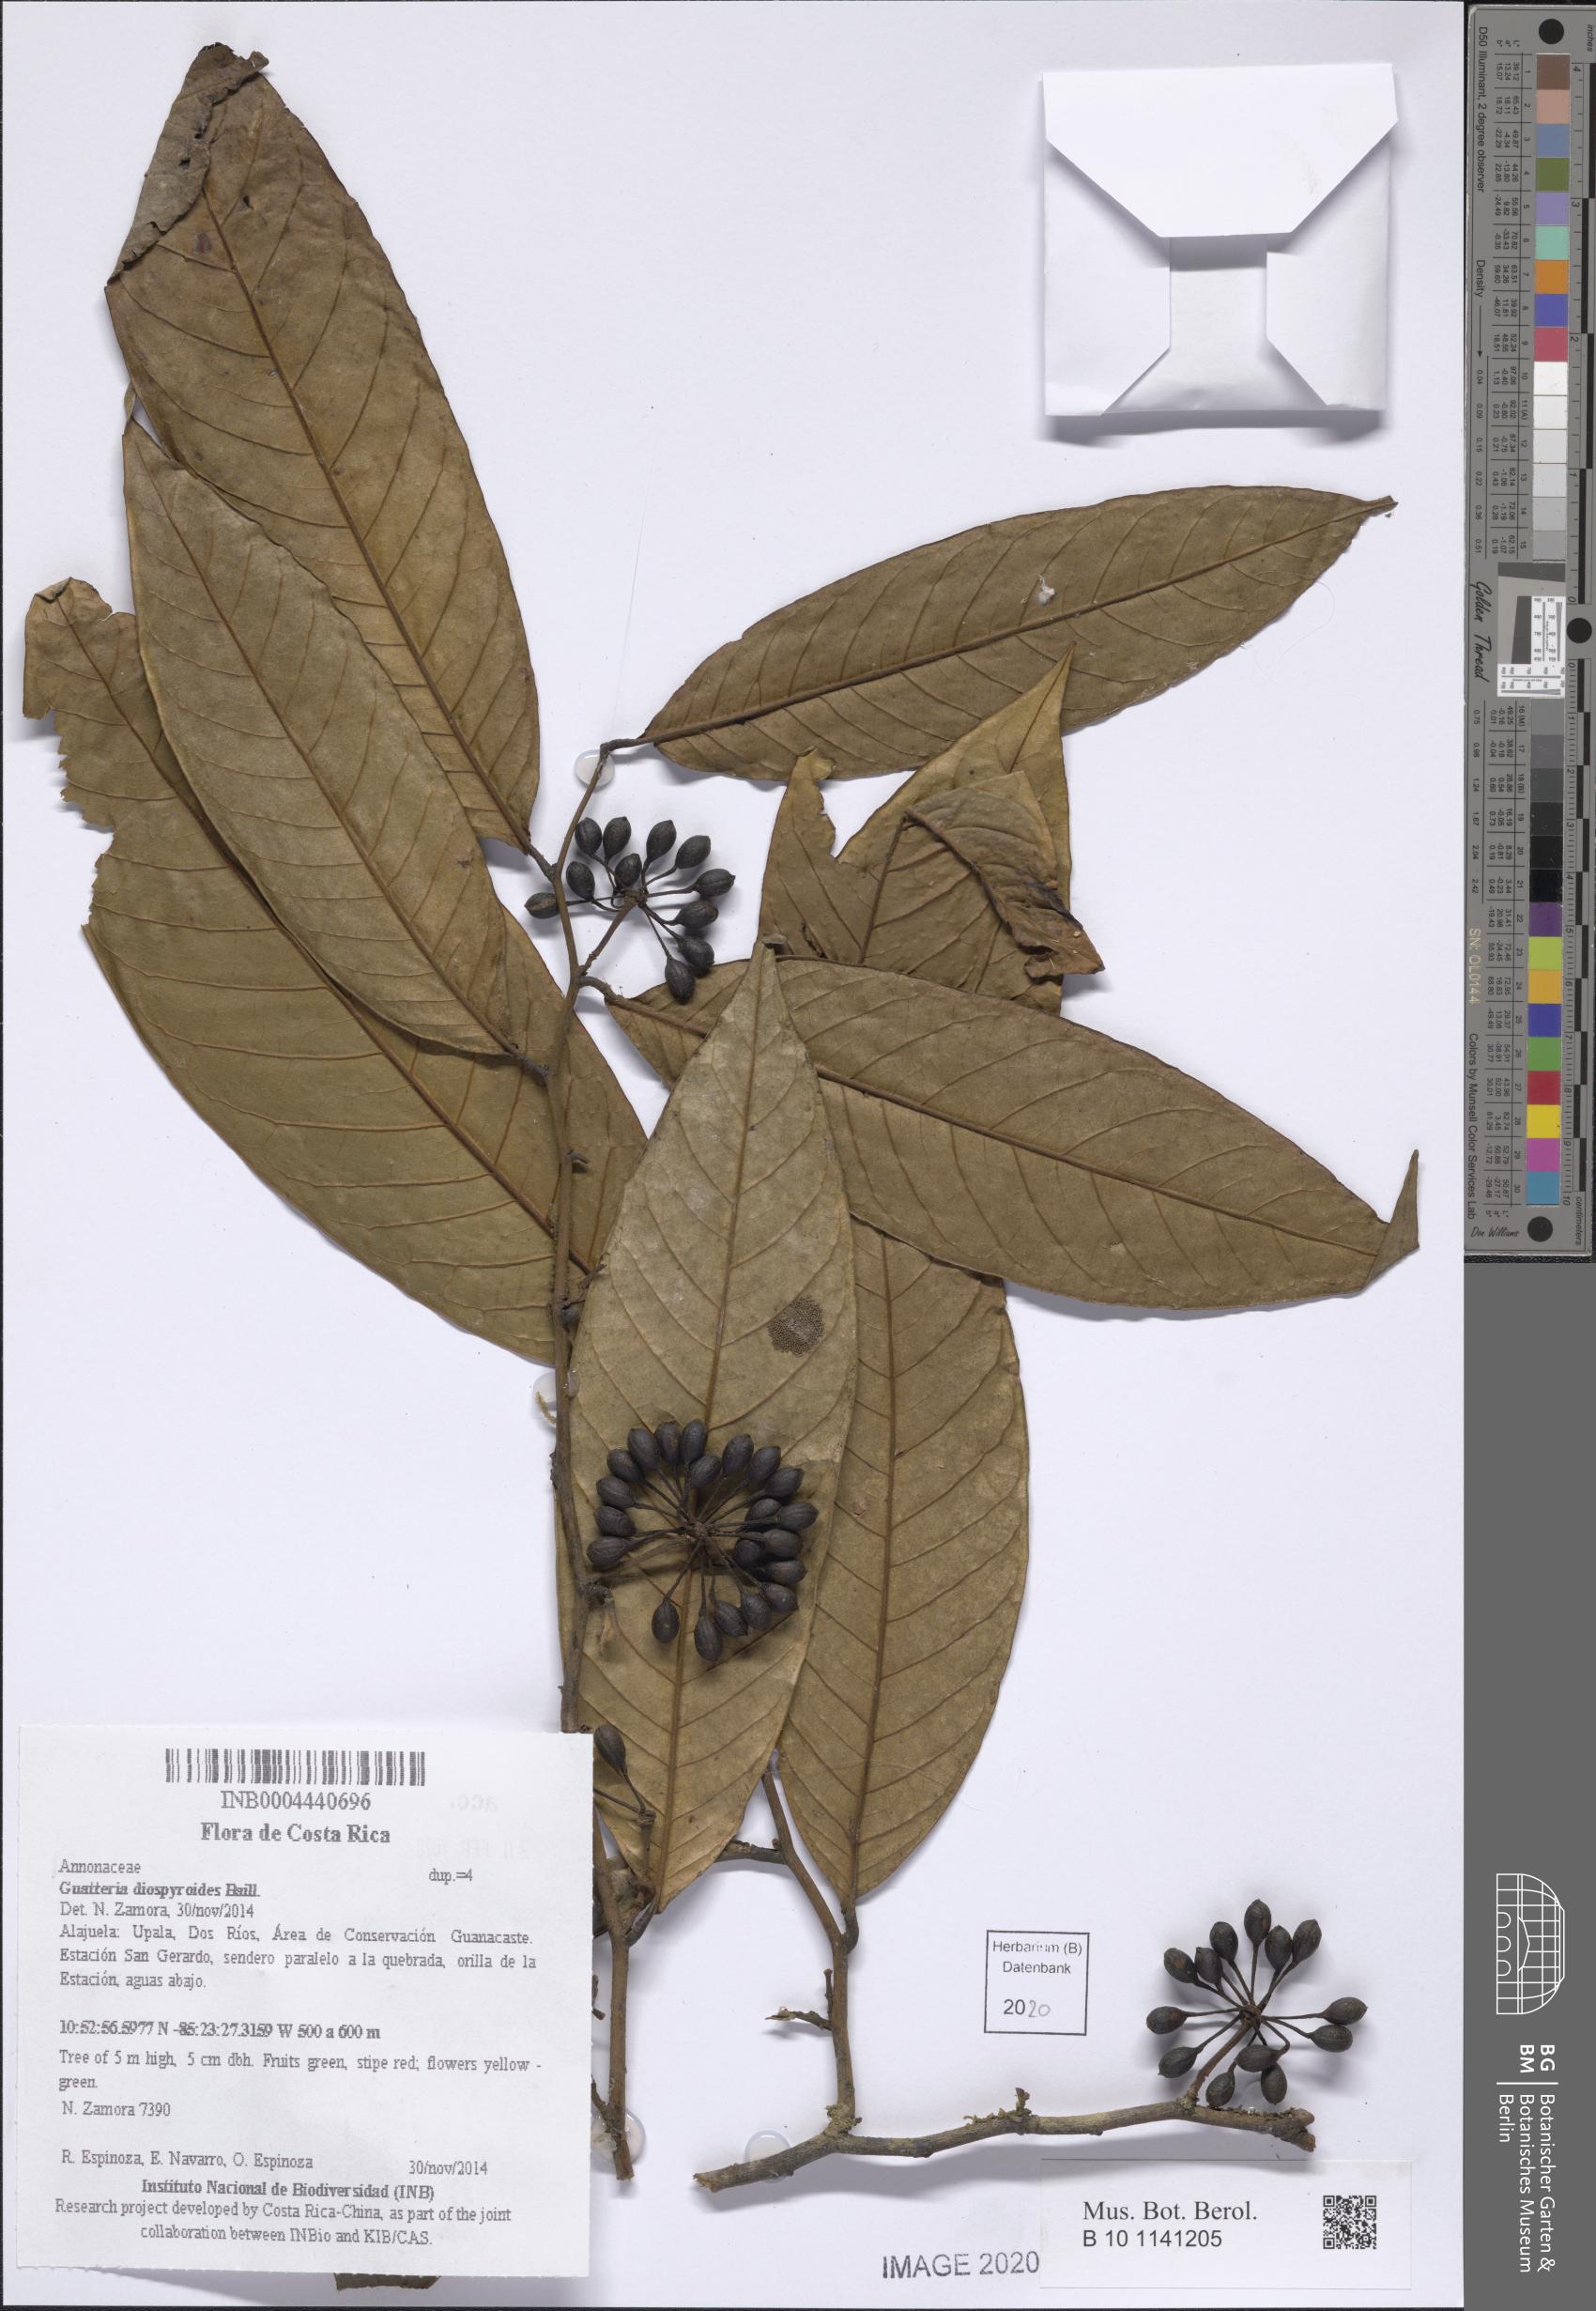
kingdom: Plantae
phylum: Tracheophyta
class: Magnoliopsida
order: Magnoliales
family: Annonaceae
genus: Guatteria
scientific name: Guatteria diospyroides
